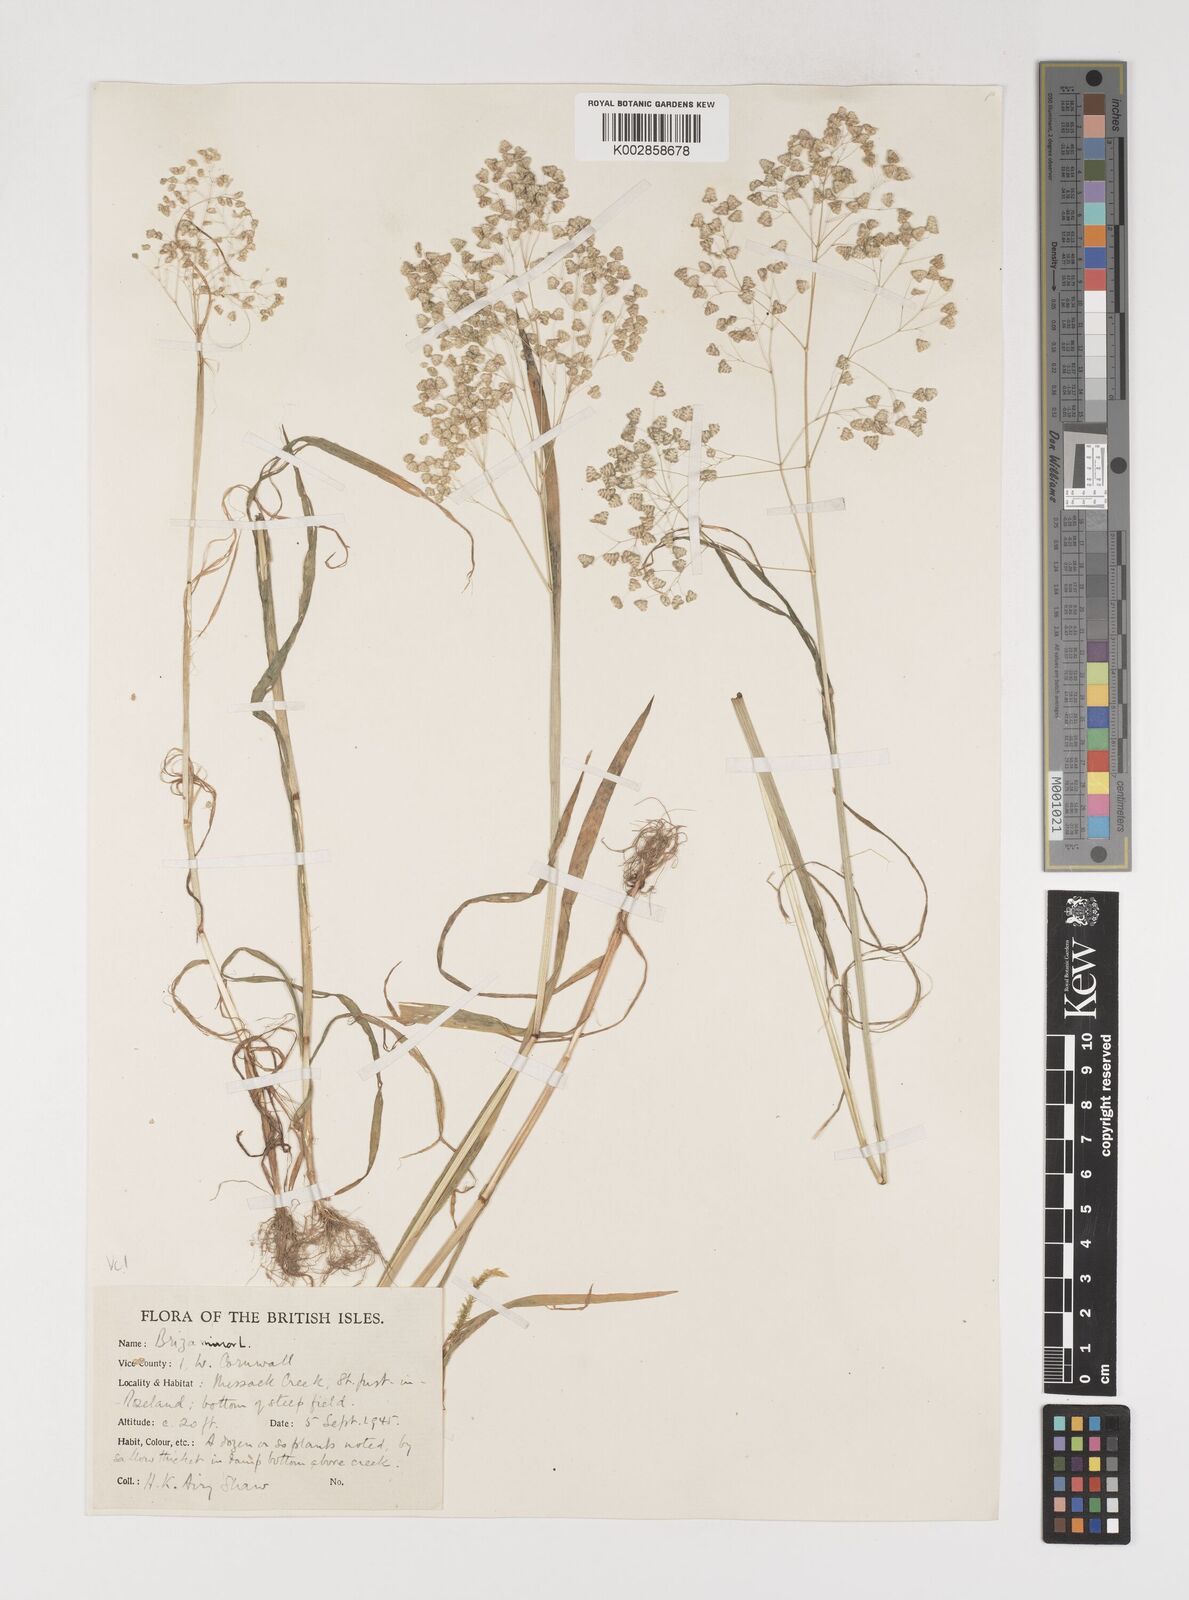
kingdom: Plantae
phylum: Tracheophyta
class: Liliopsida
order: Poales
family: Poaceae
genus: Briza
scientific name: Briza minor
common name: Lesser quaking-grass
